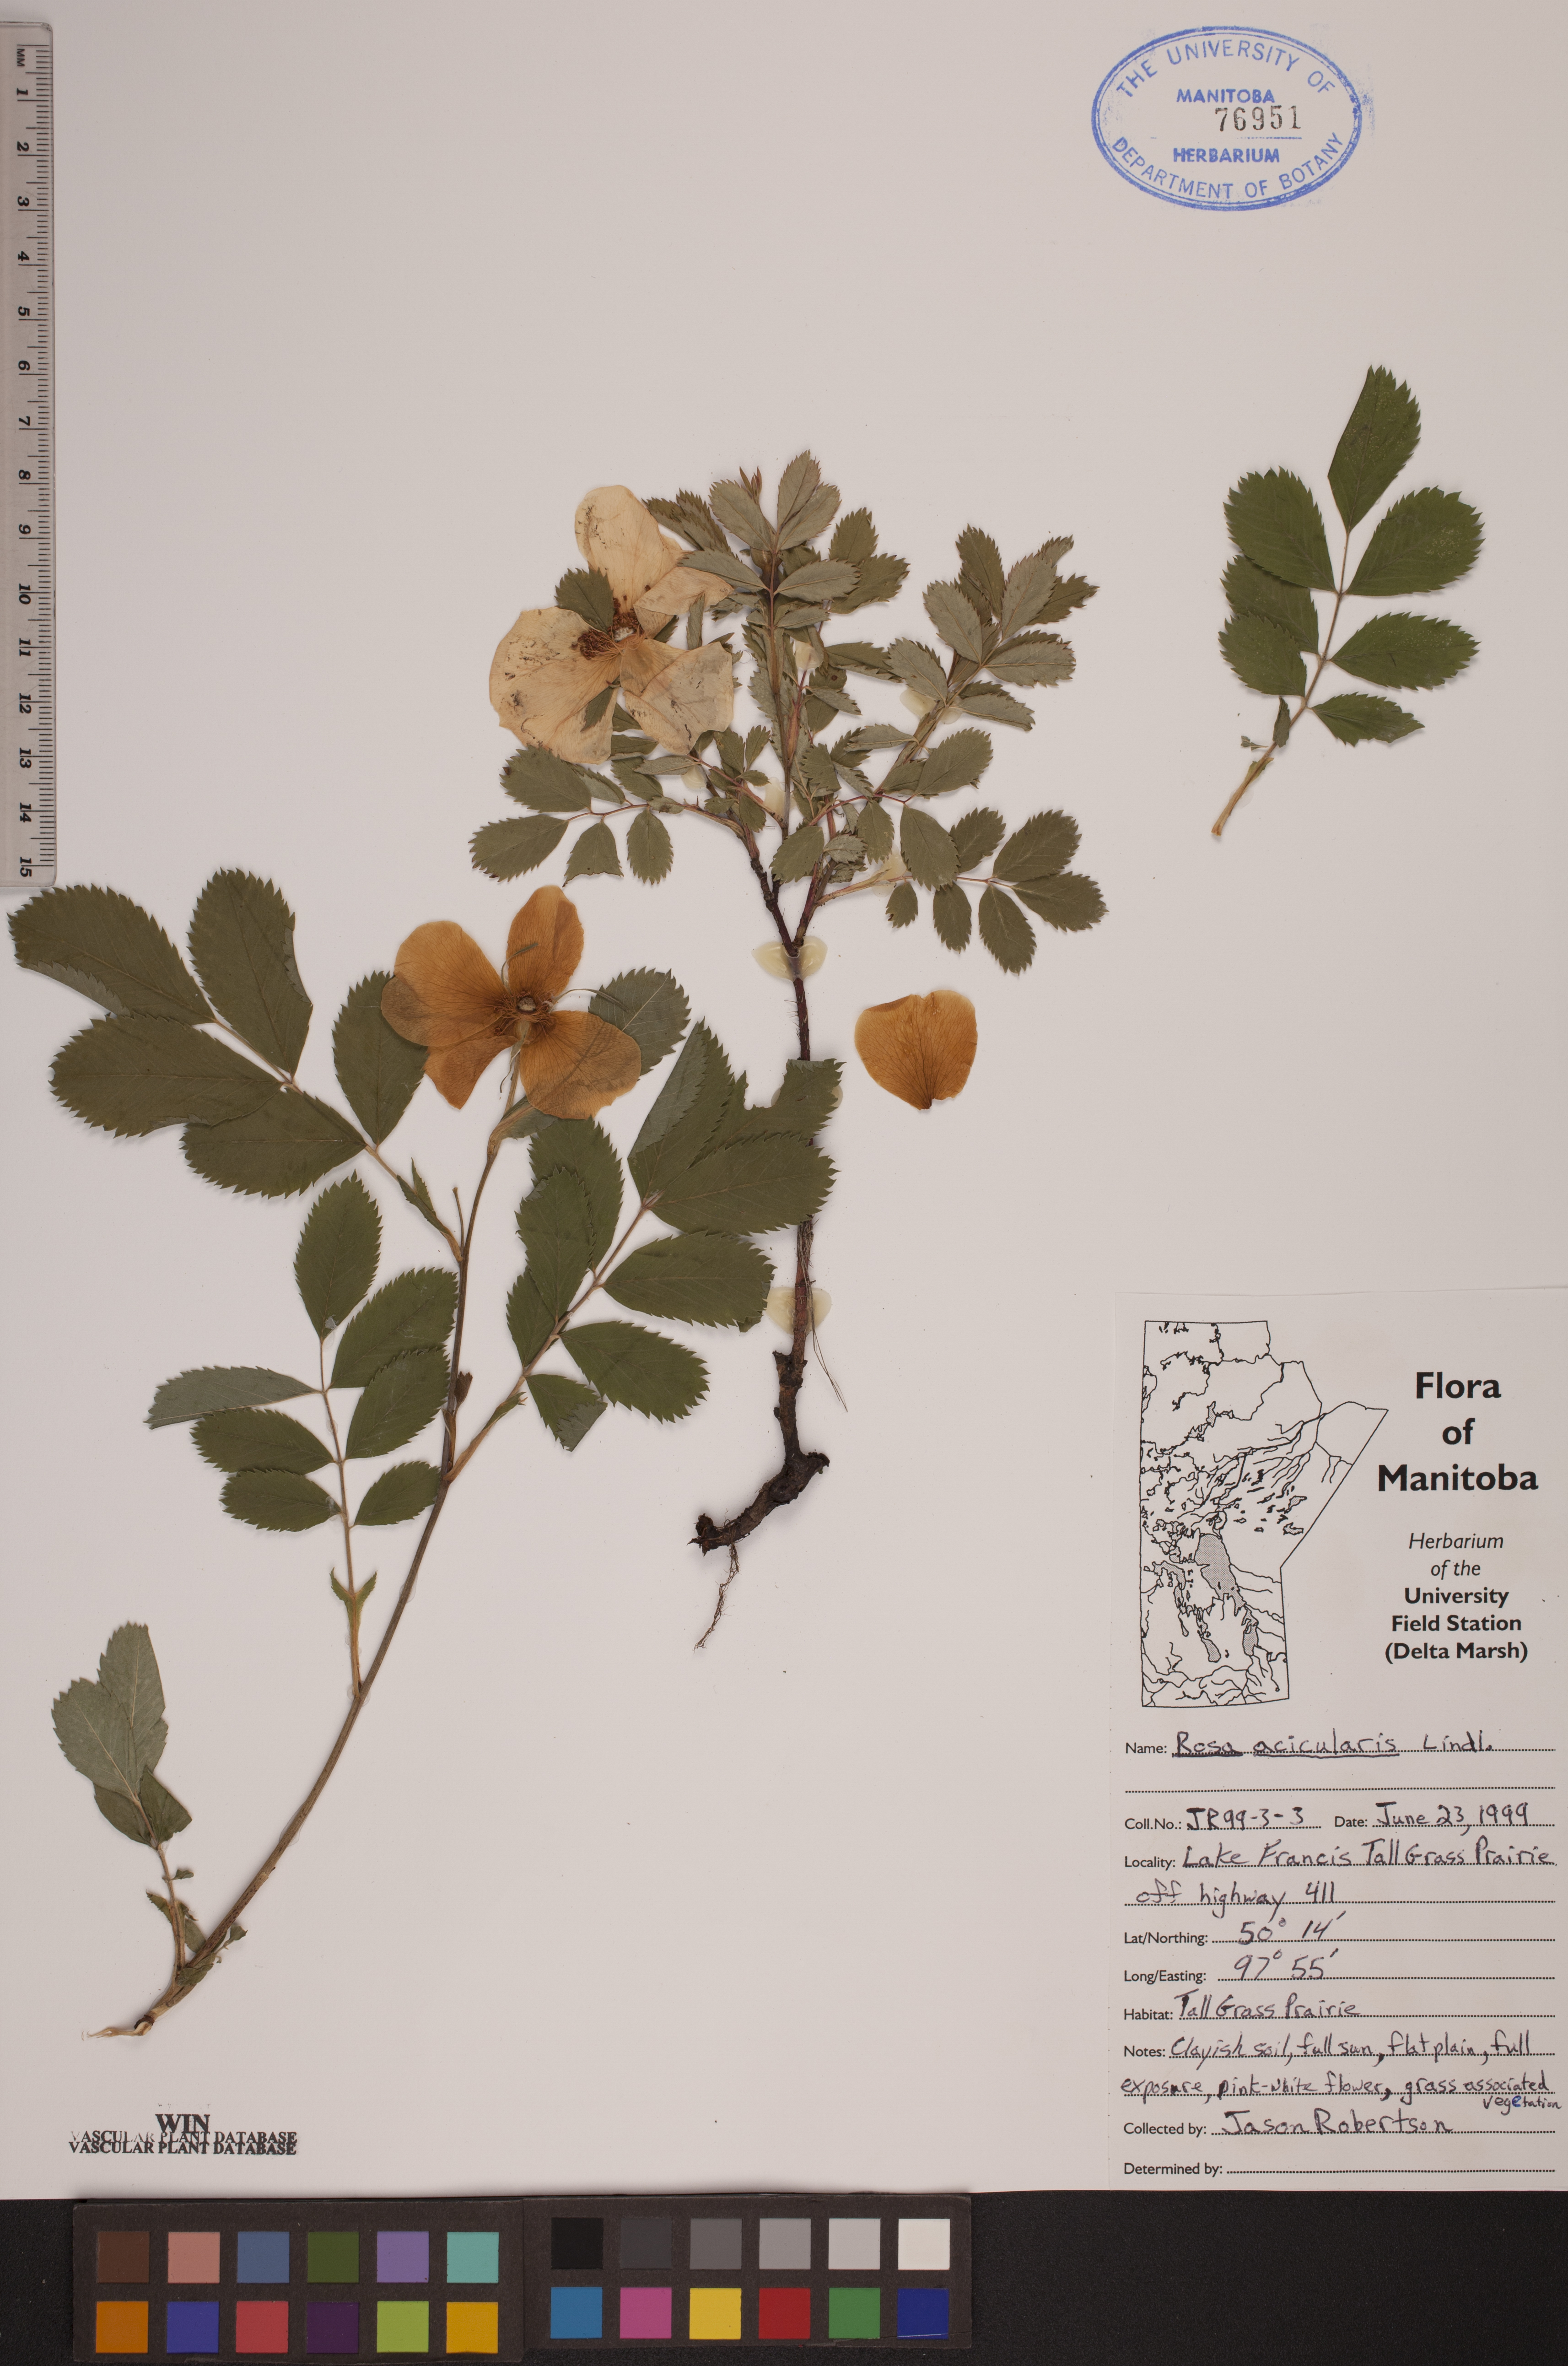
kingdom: Plantae
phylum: Tracheophyta
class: Magnoliopsida
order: Rosales
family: Rosaceae
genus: Rosa
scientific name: Rosa acicularis
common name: Prickly rose
